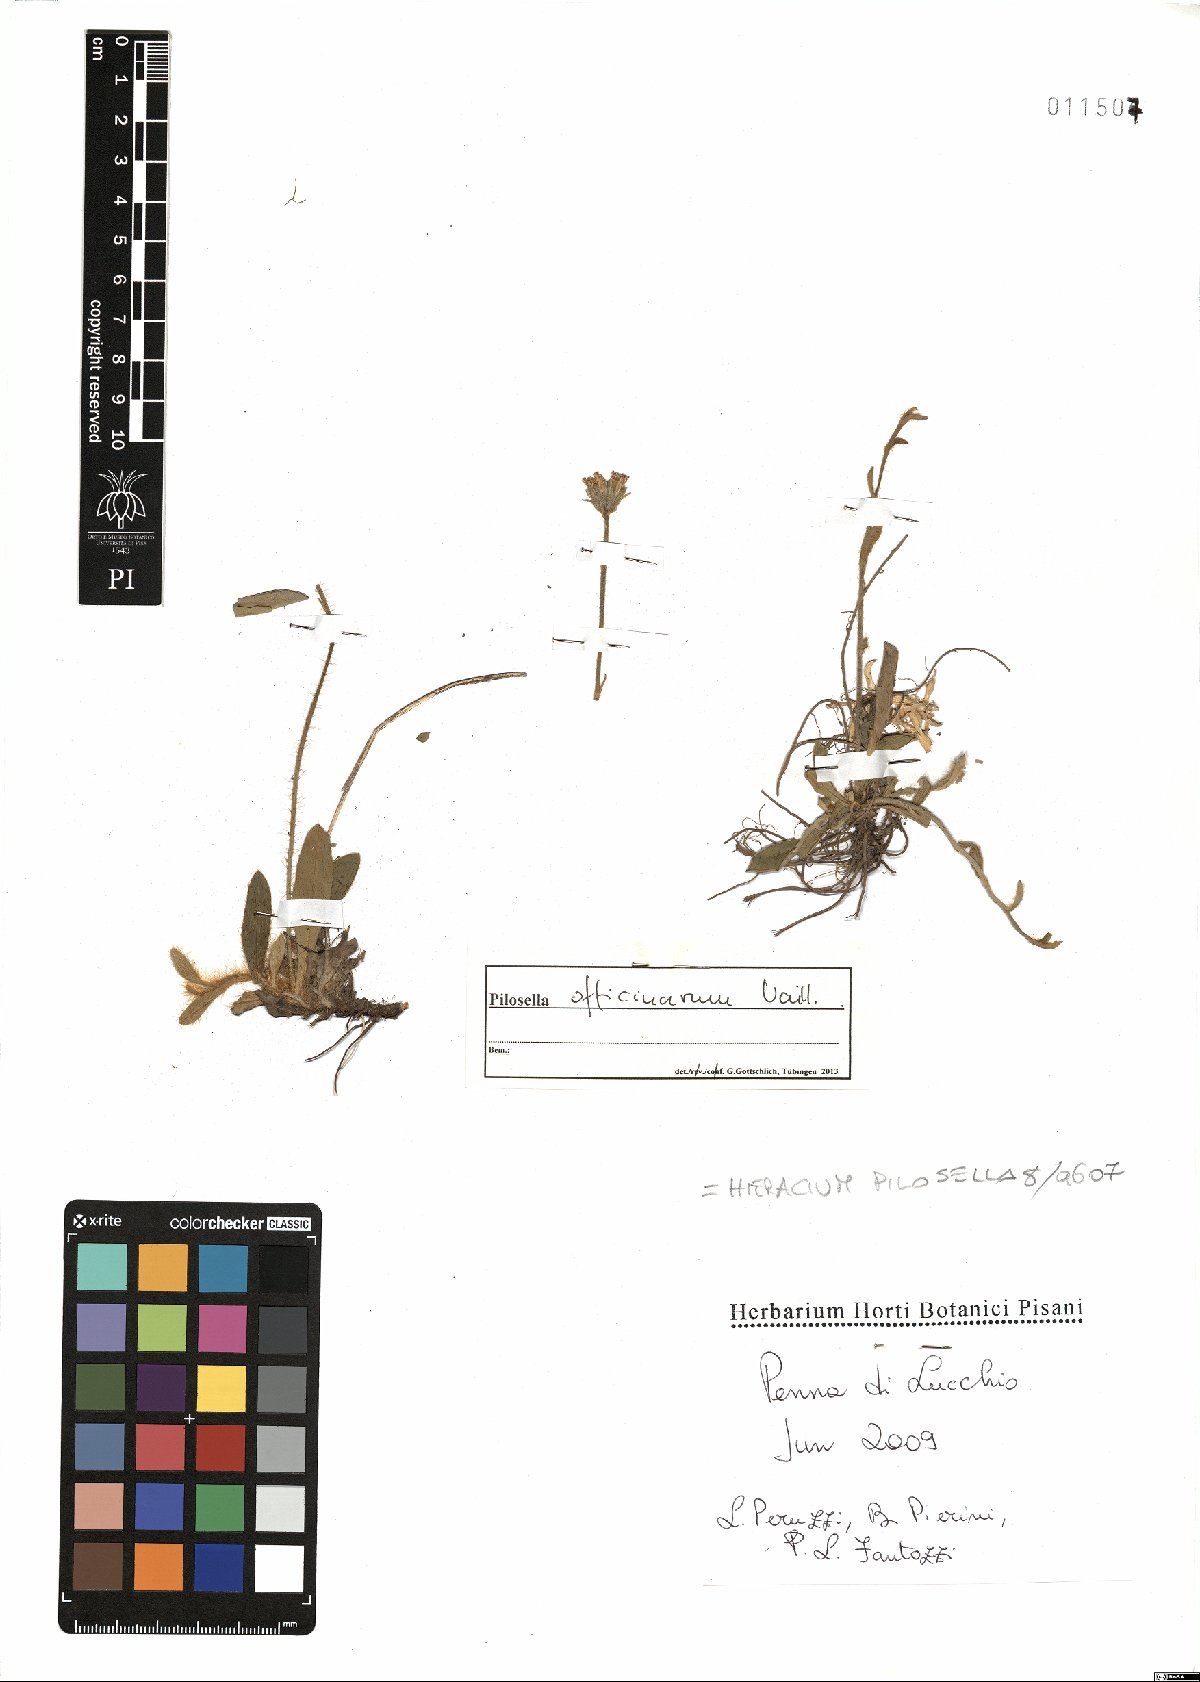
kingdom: Plantae
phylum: Tracheophyta
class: Magnoliopsida
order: Asterales
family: Asteraceae
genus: Pilosella
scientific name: Pilosella officinarum
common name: Mouse-ear hawkweed
